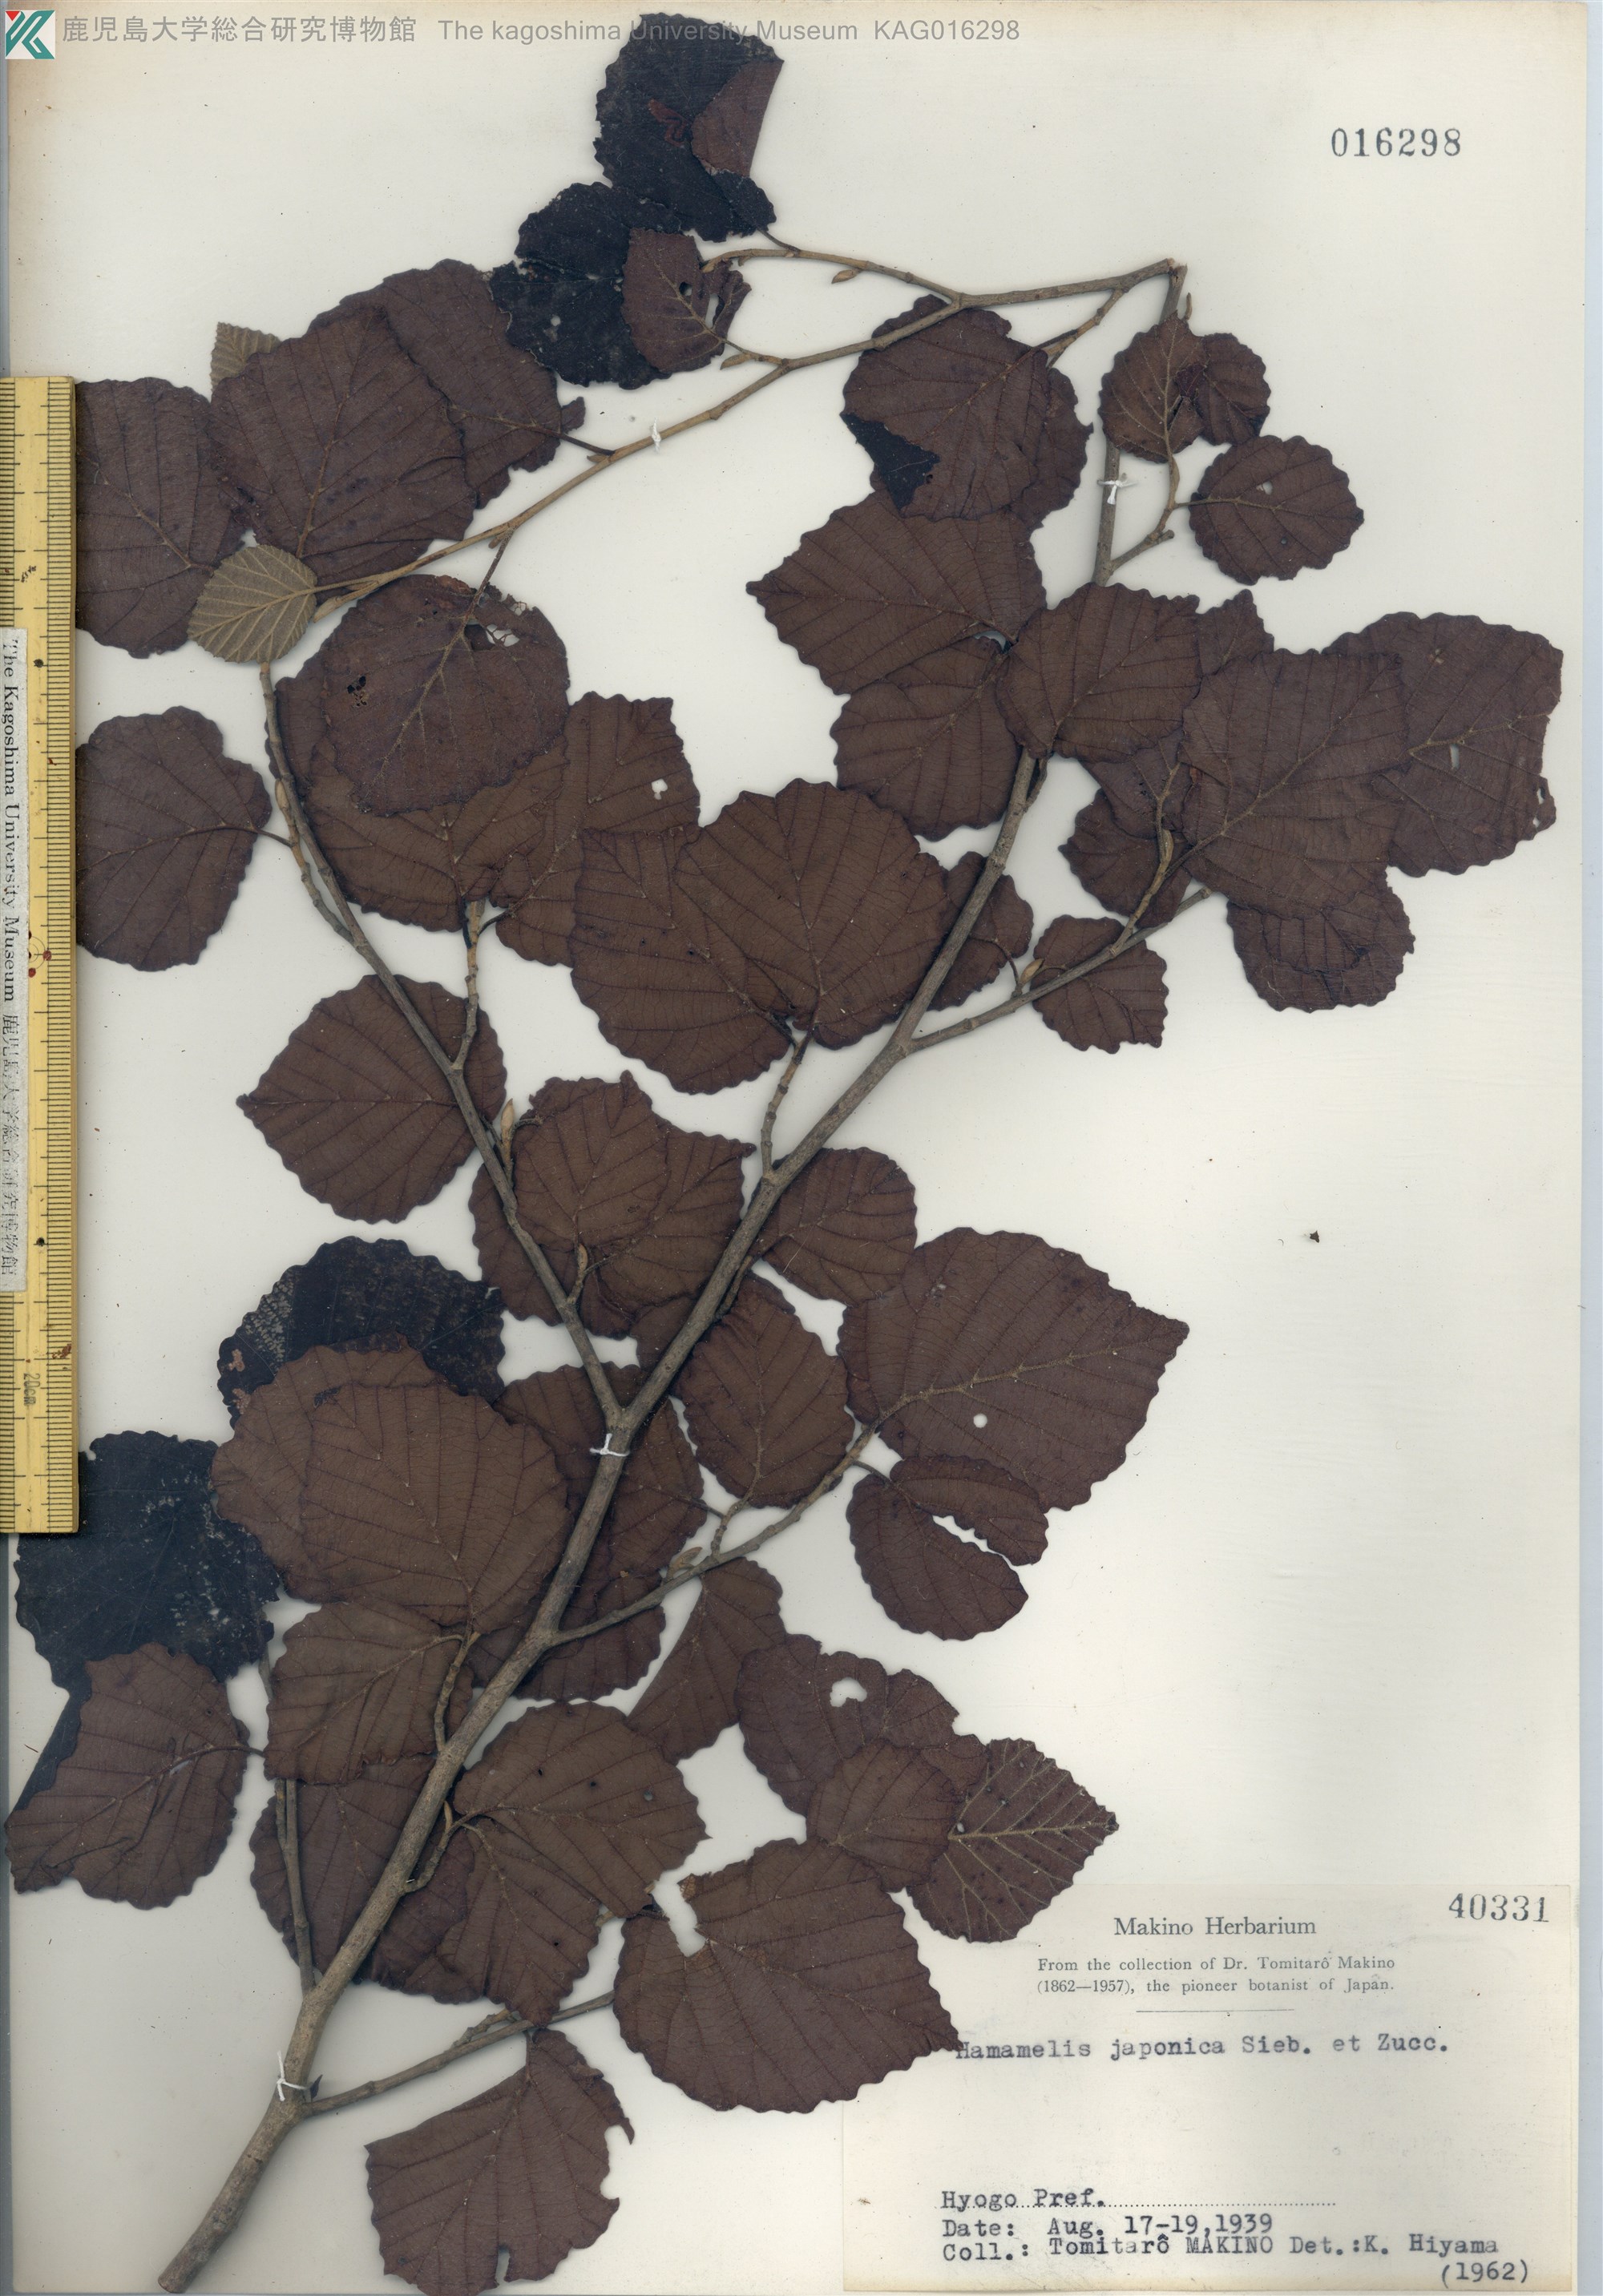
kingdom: Plantae
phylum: Tracheophyta
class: Magnoliopsida
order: Saxifragales
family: Hamamelidaceae
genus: Hamamelis
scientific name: Hamamelis japonica
